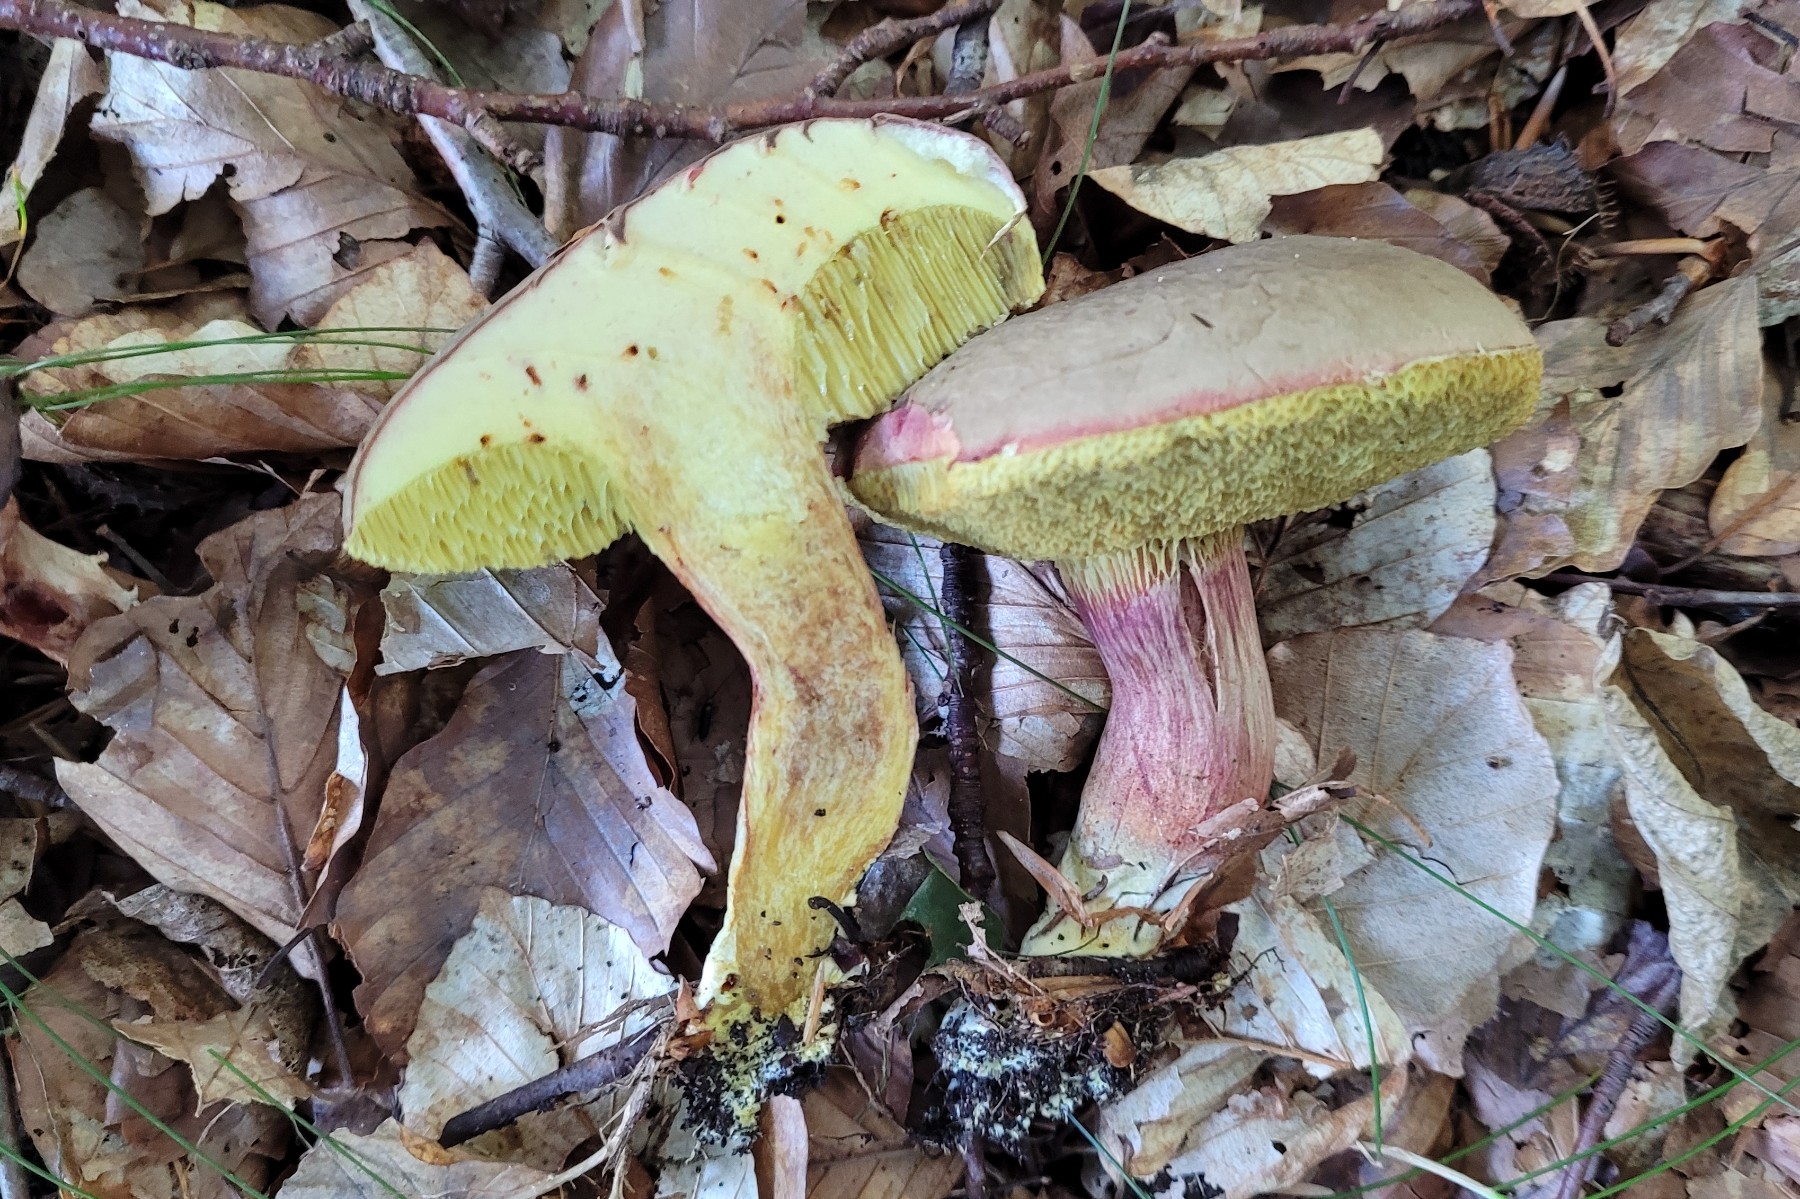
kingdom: Fungi
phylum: Basidiomycota
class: Agaricomycetes
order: Boletales
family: Boletaceae
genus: Xerocomellus
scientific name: Xerocomellus pruinatus
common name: dugget rørhat
